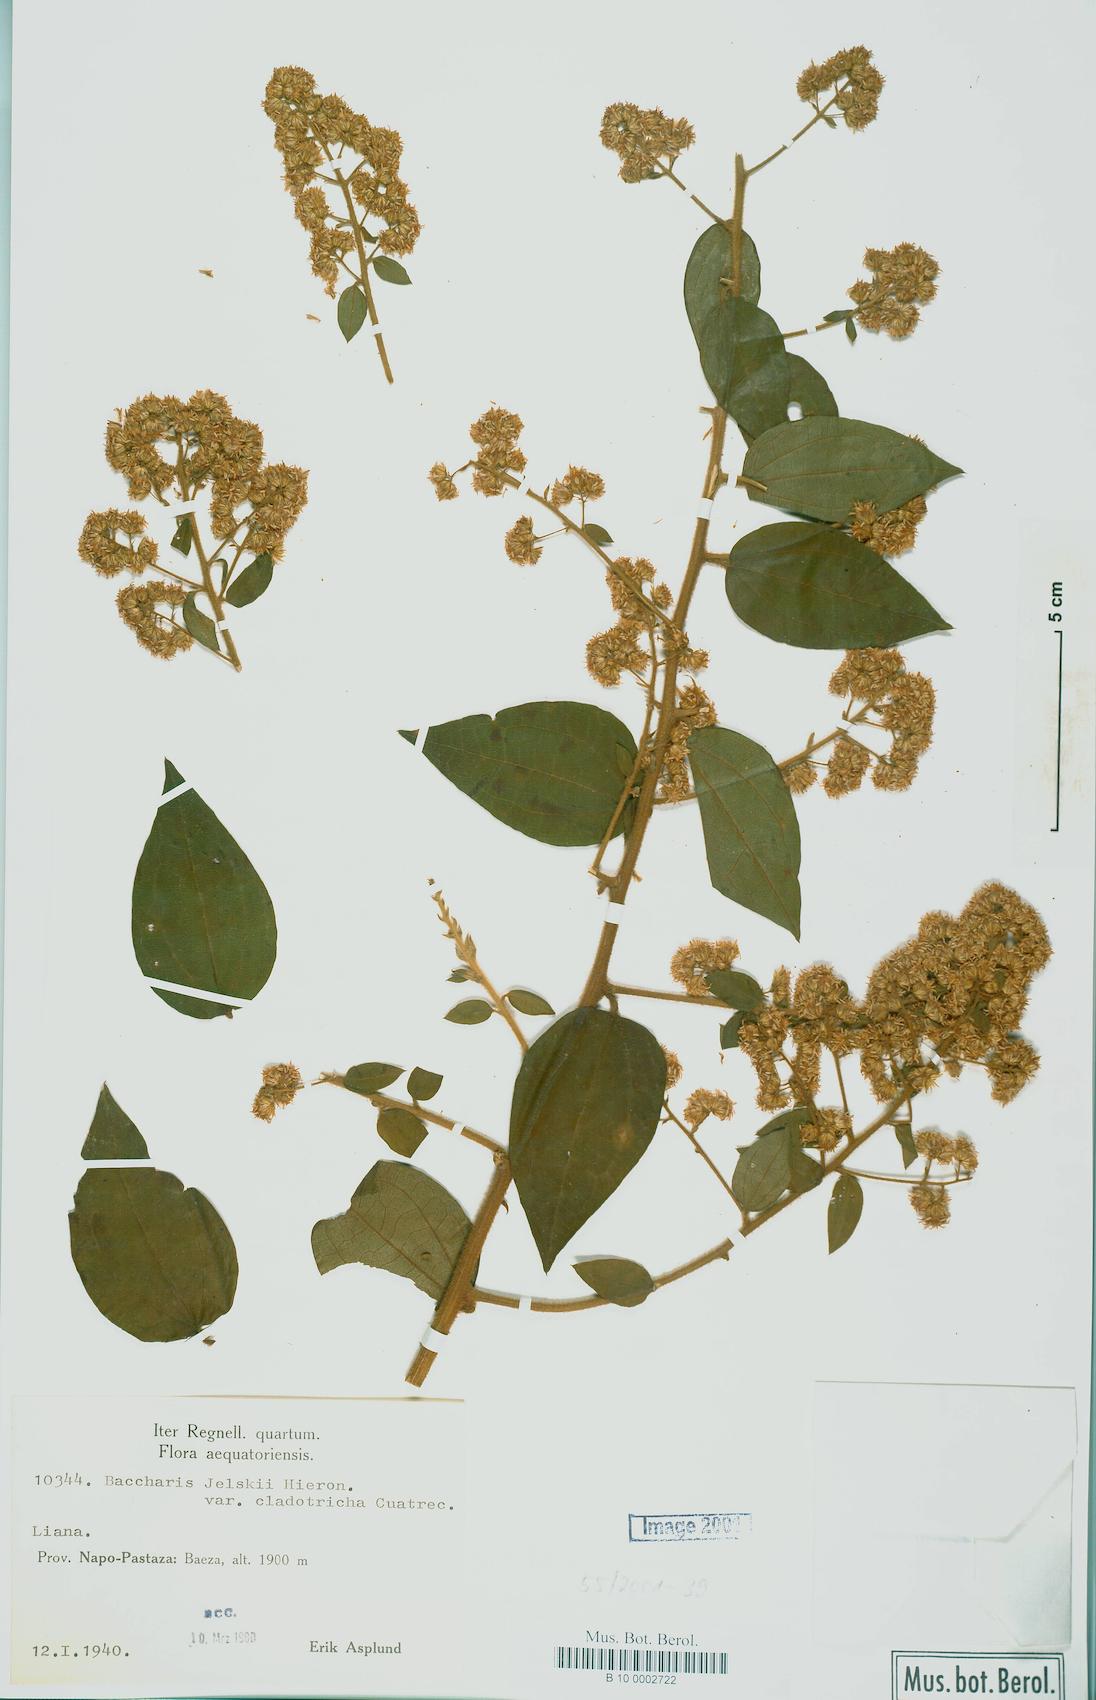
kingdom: Plantae
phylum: Tracheophyta
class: Magnoliopsida
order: Asterales
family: Asteraceae
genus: Baccharis
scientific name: Baccharis decussata
